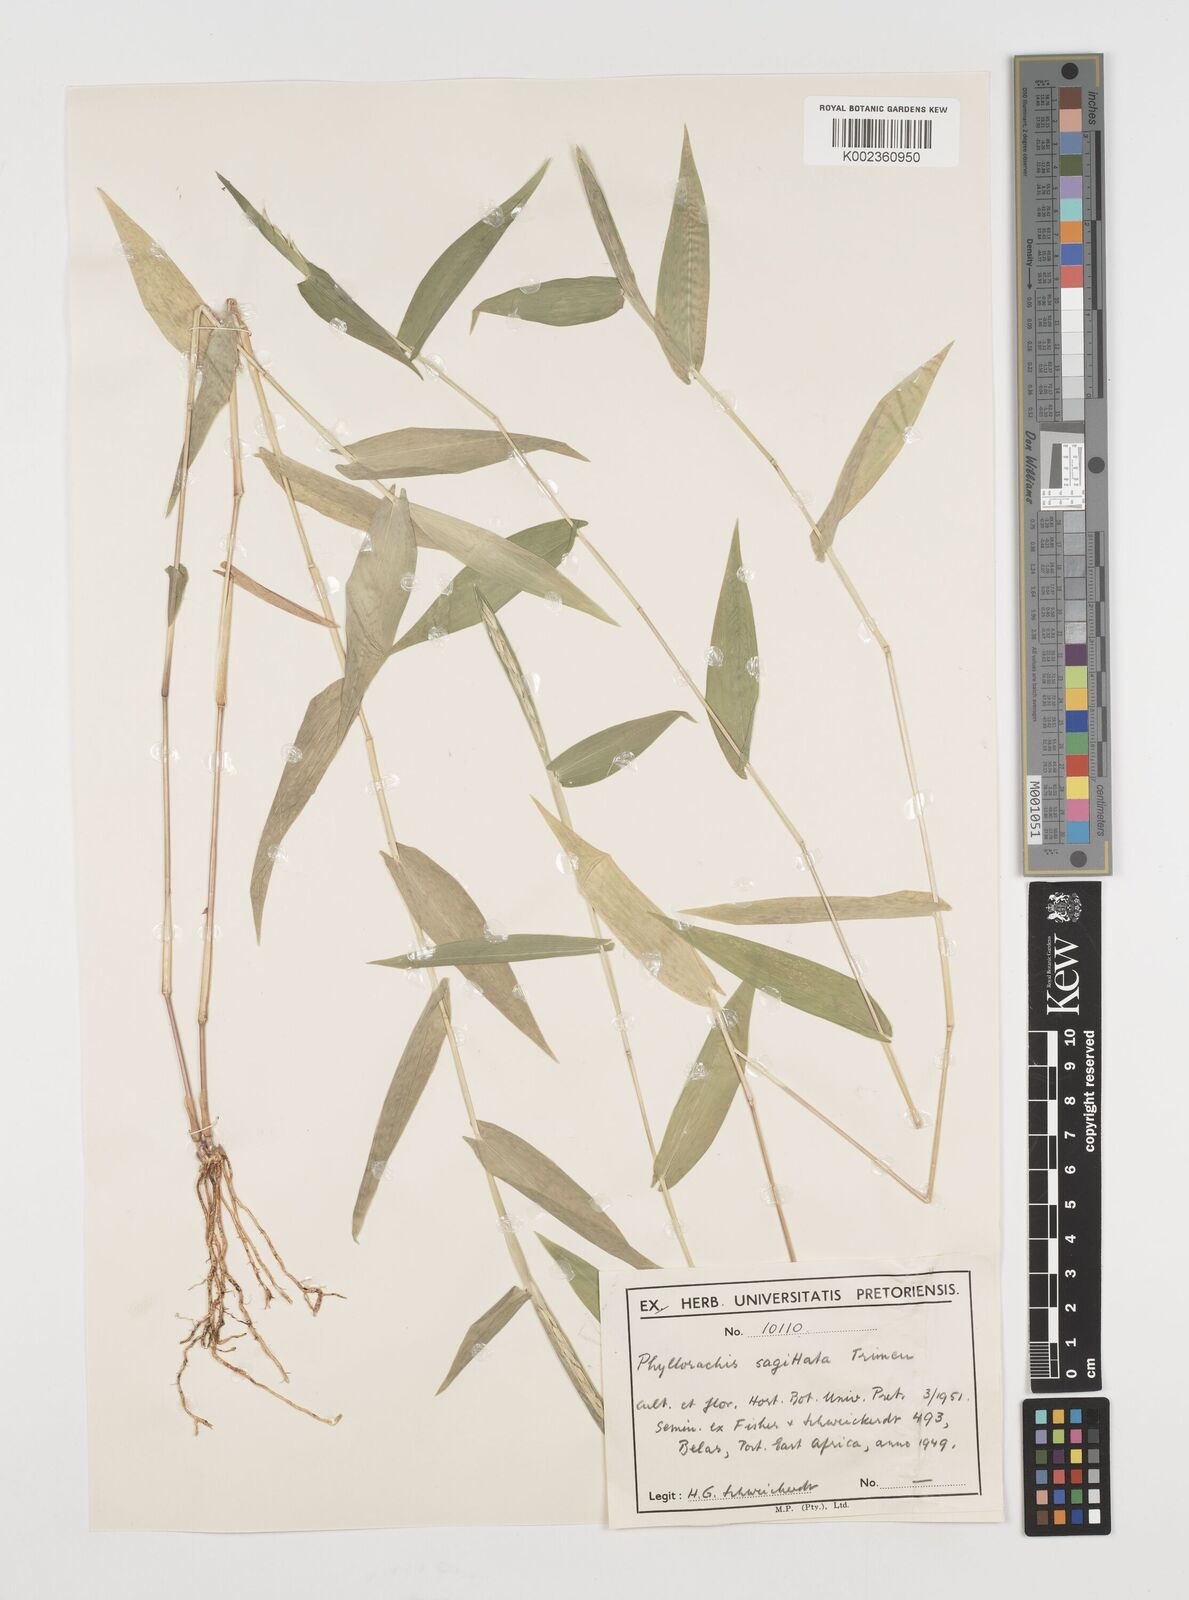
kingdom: Plantae
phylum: Tracheophyta
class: Liliopsida
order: Poales
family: Poaceae
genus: Phyllorachis
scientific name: Phyllorachis sagittata
